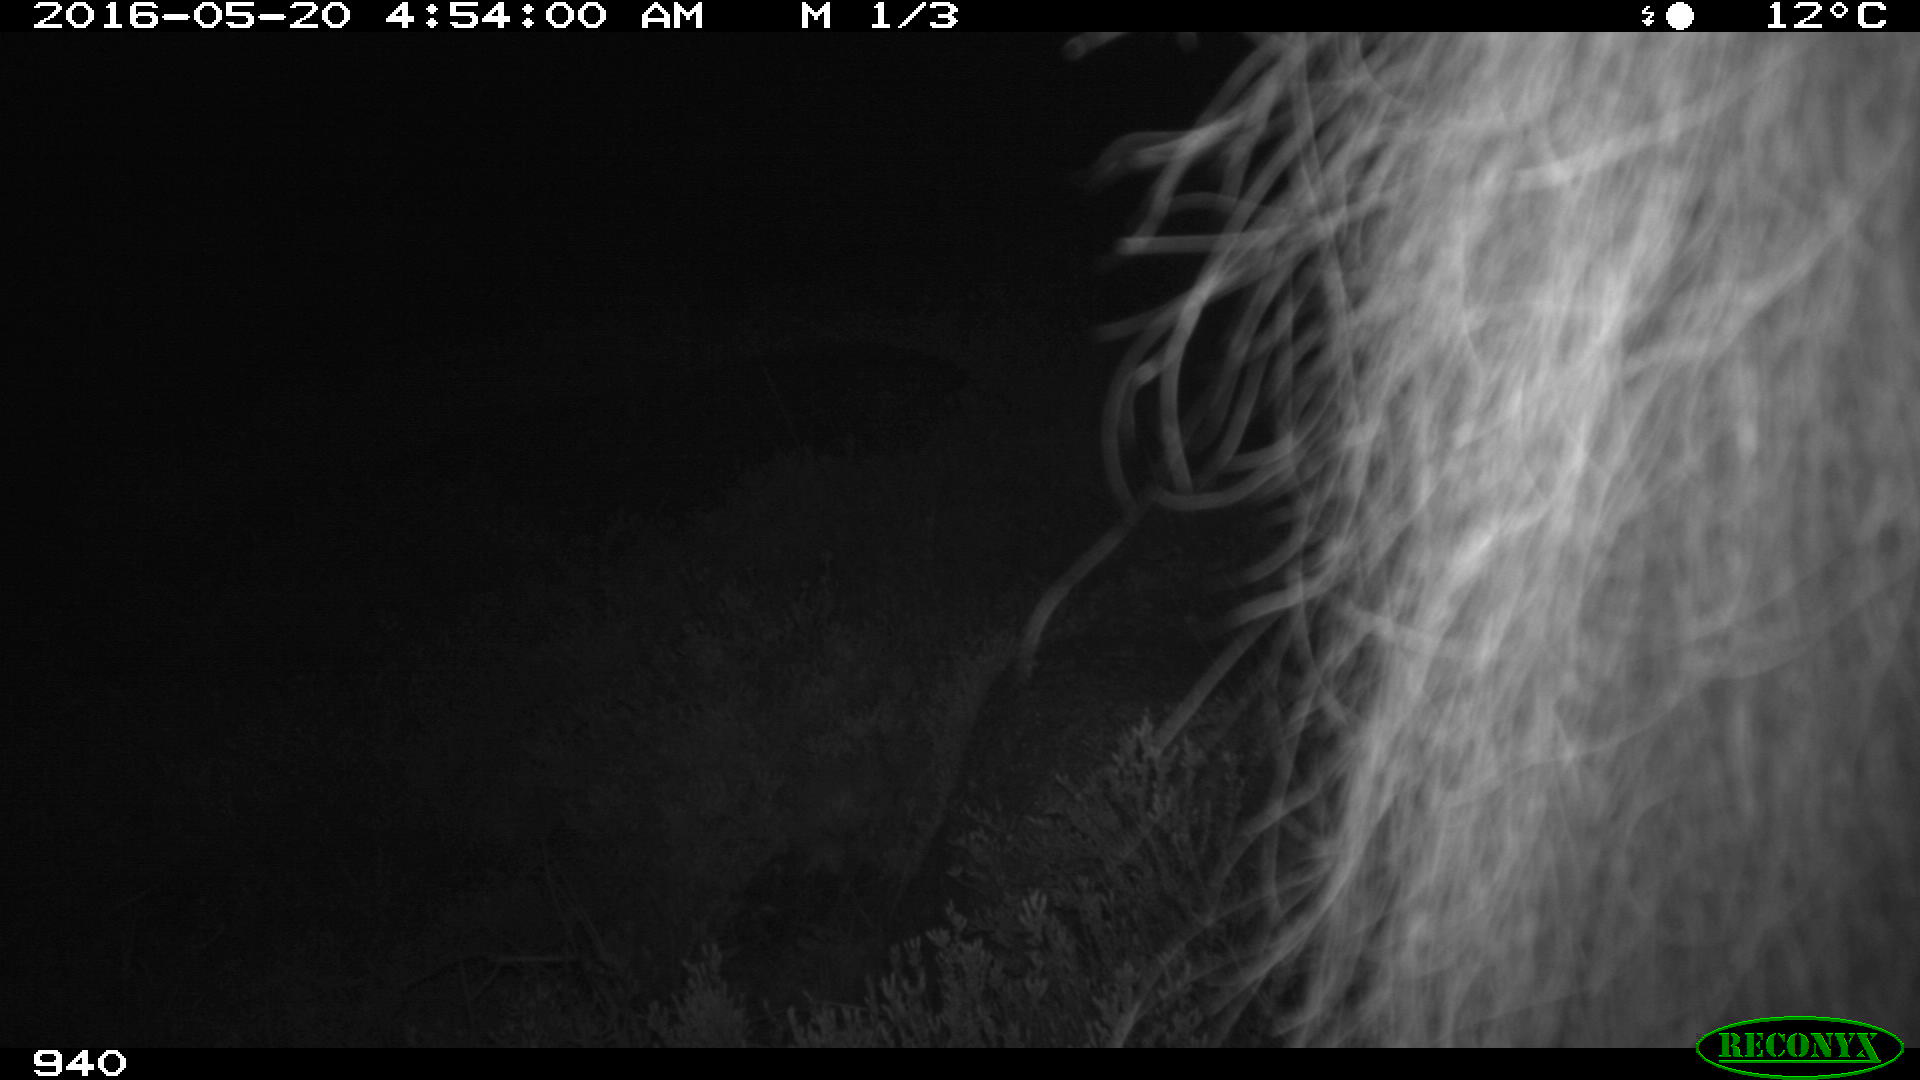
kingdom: Animalia
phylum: Chordata
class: Mammalia
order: Perissodactyla
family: Equidae
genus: Equus
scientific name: Equus caballus
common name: Horse
